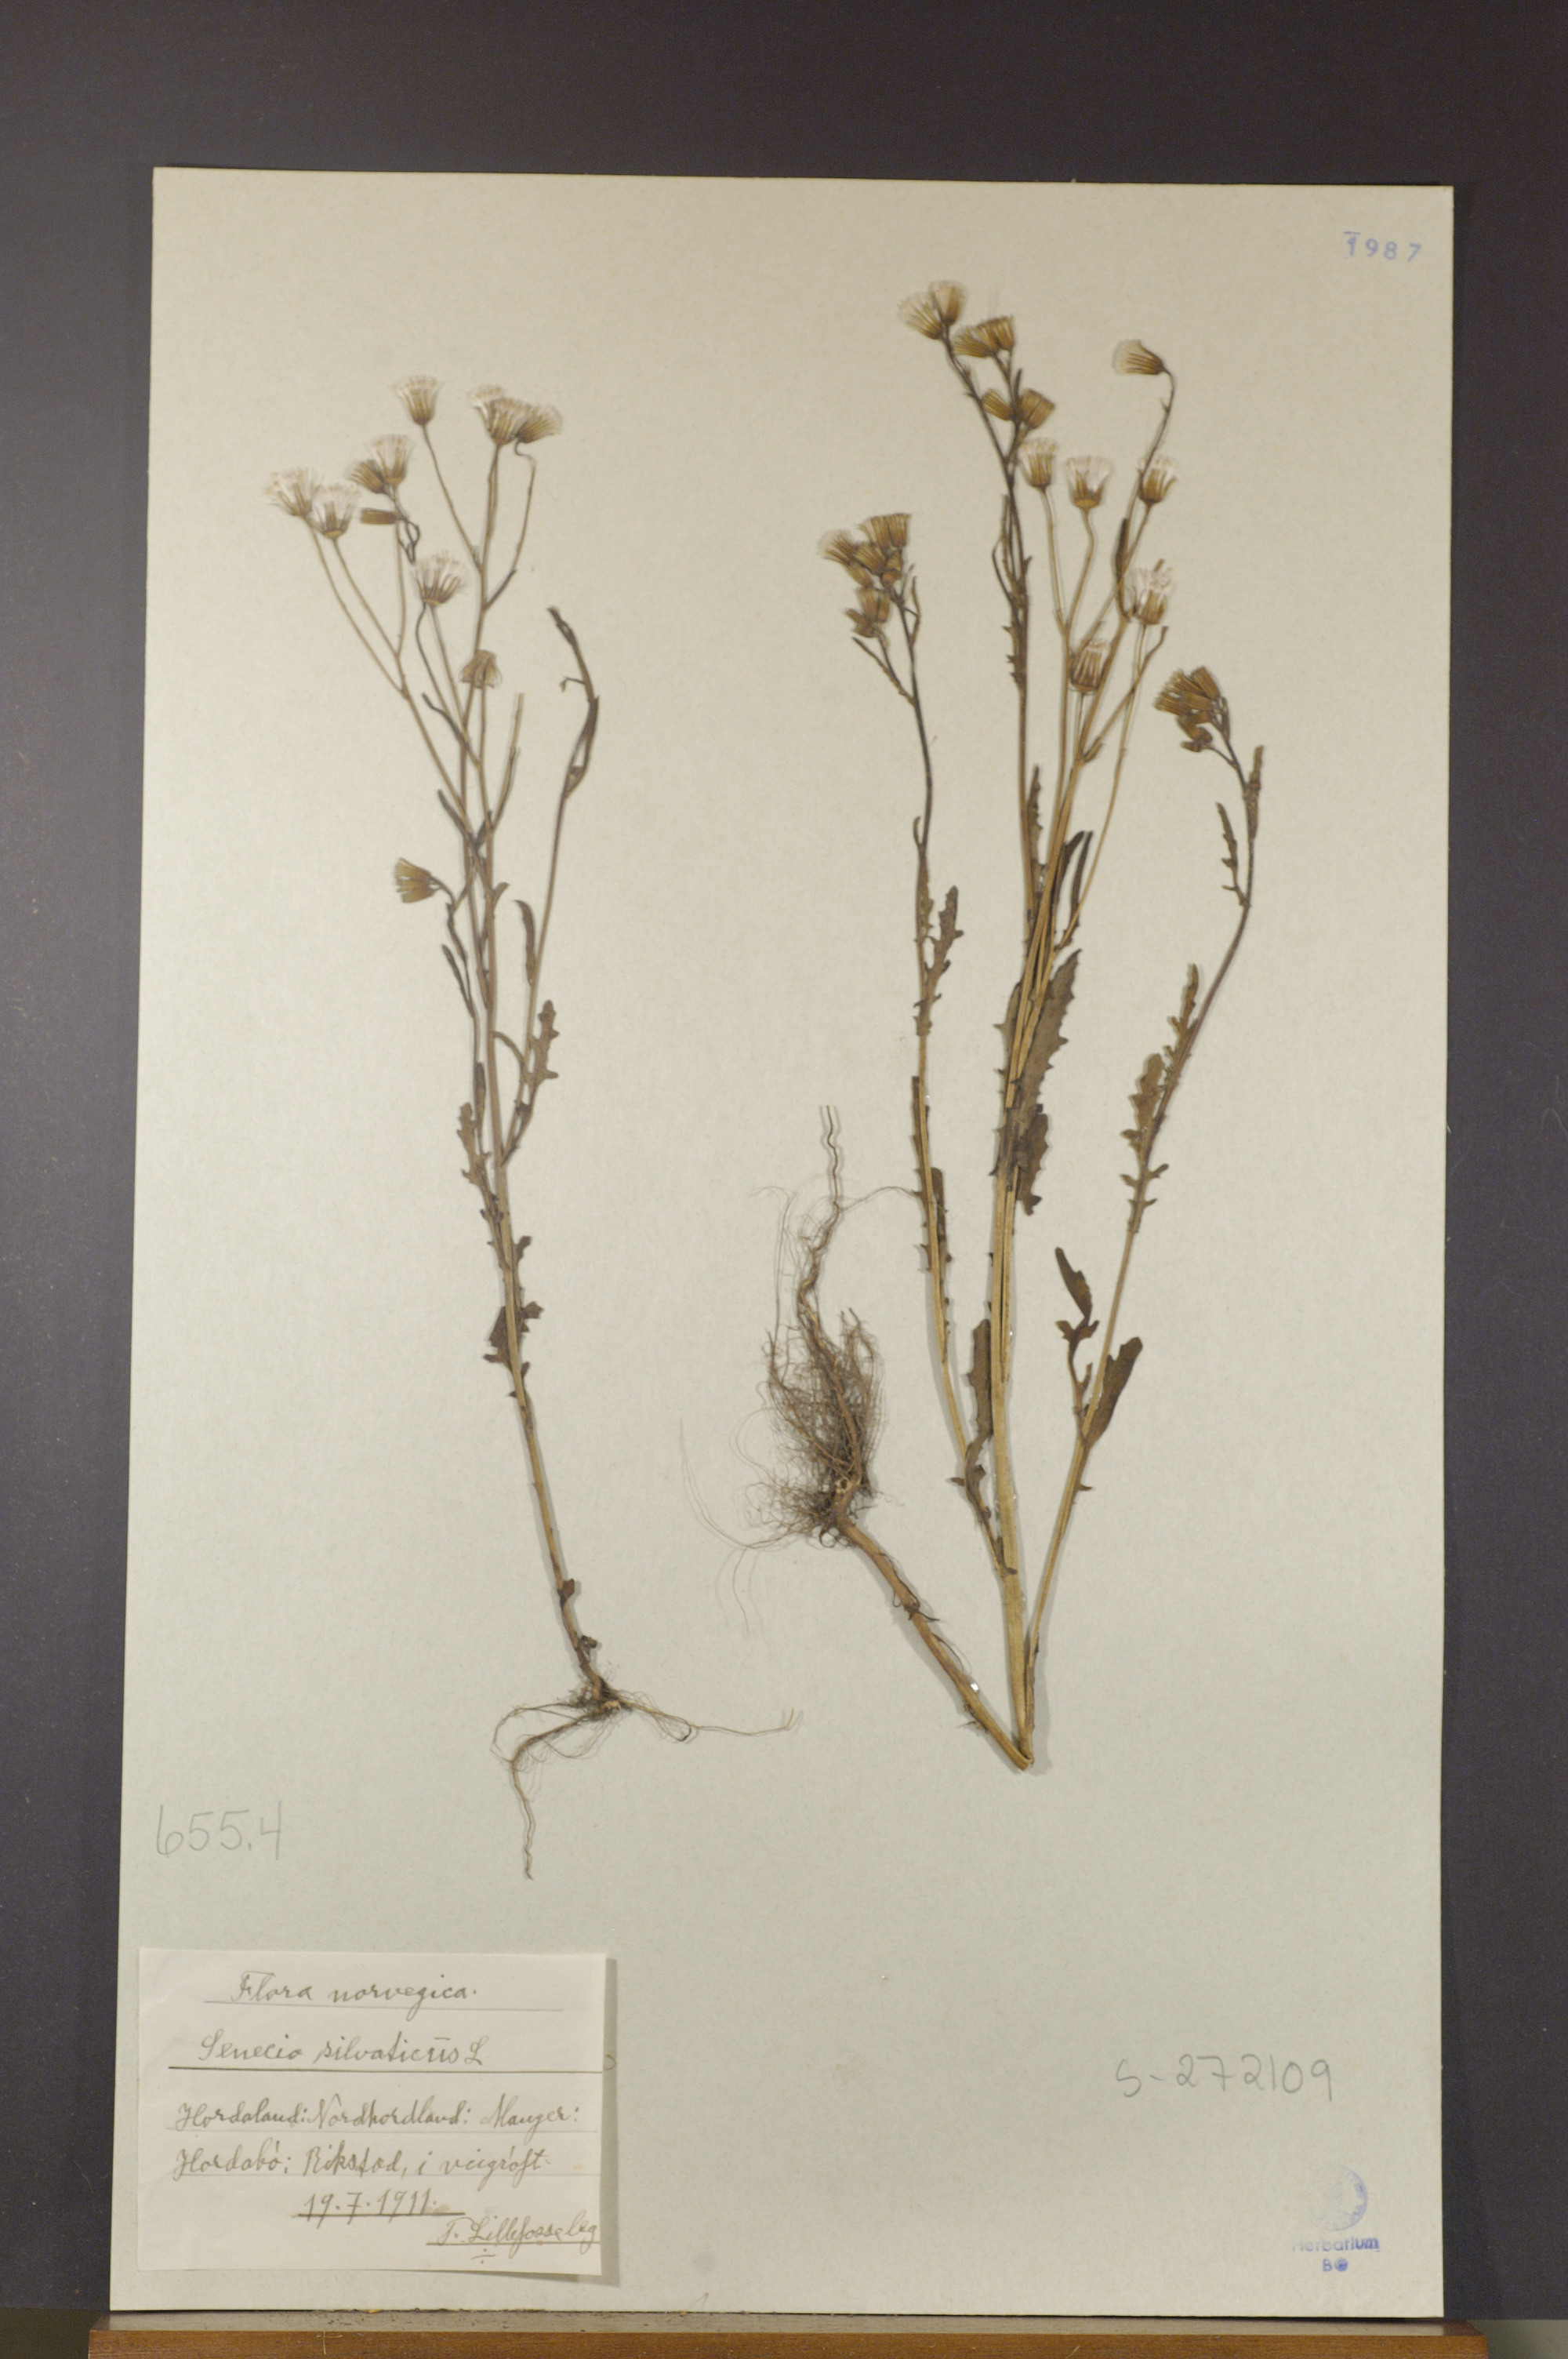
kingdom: Plantae
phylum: Tracheophyta
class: Magnoliopsida
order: Asterales
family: Asteraceae
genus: Senecio
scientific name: Senecio sylvaticus
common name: Woodland ragwort
